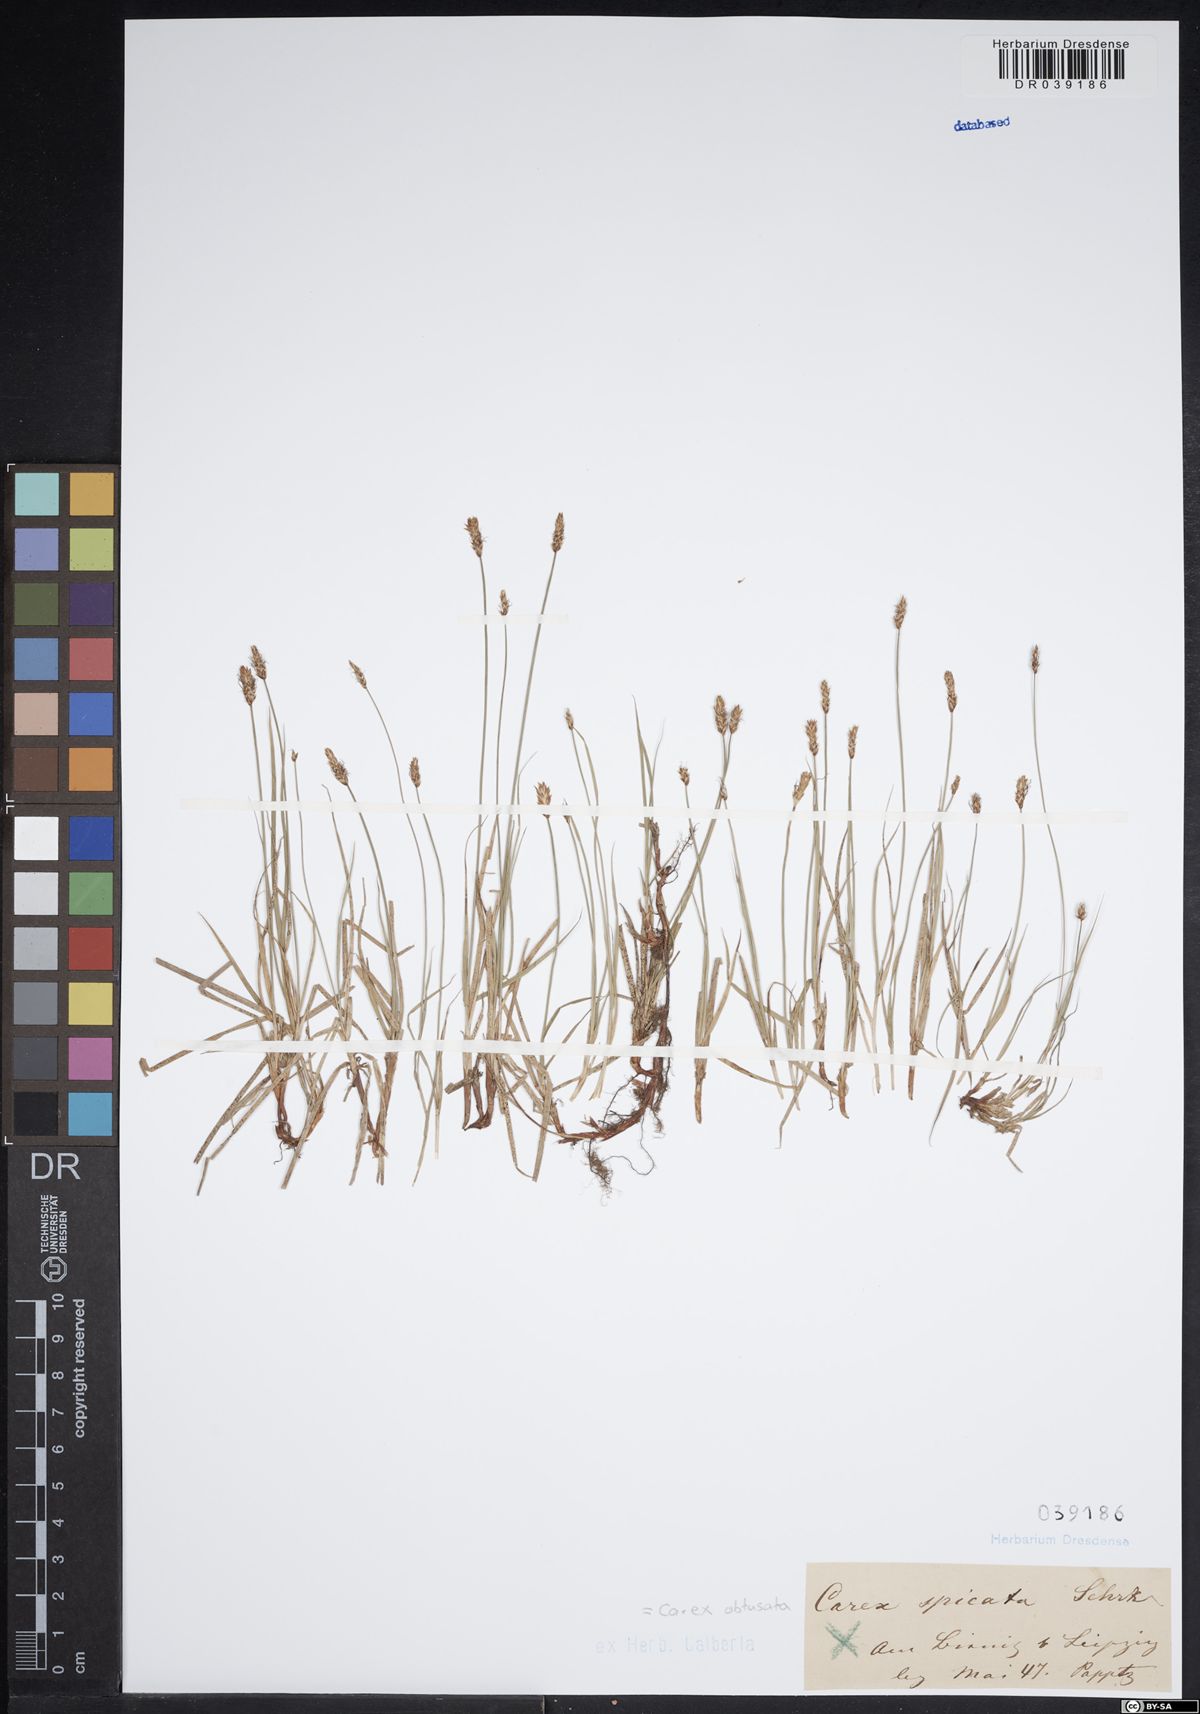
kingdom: Plantae
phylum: Tracheophyta
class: Liliopsida
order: Poales
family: Cyperaceae
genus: Carex
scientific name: Carex obtusata
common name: Blunt sedge
